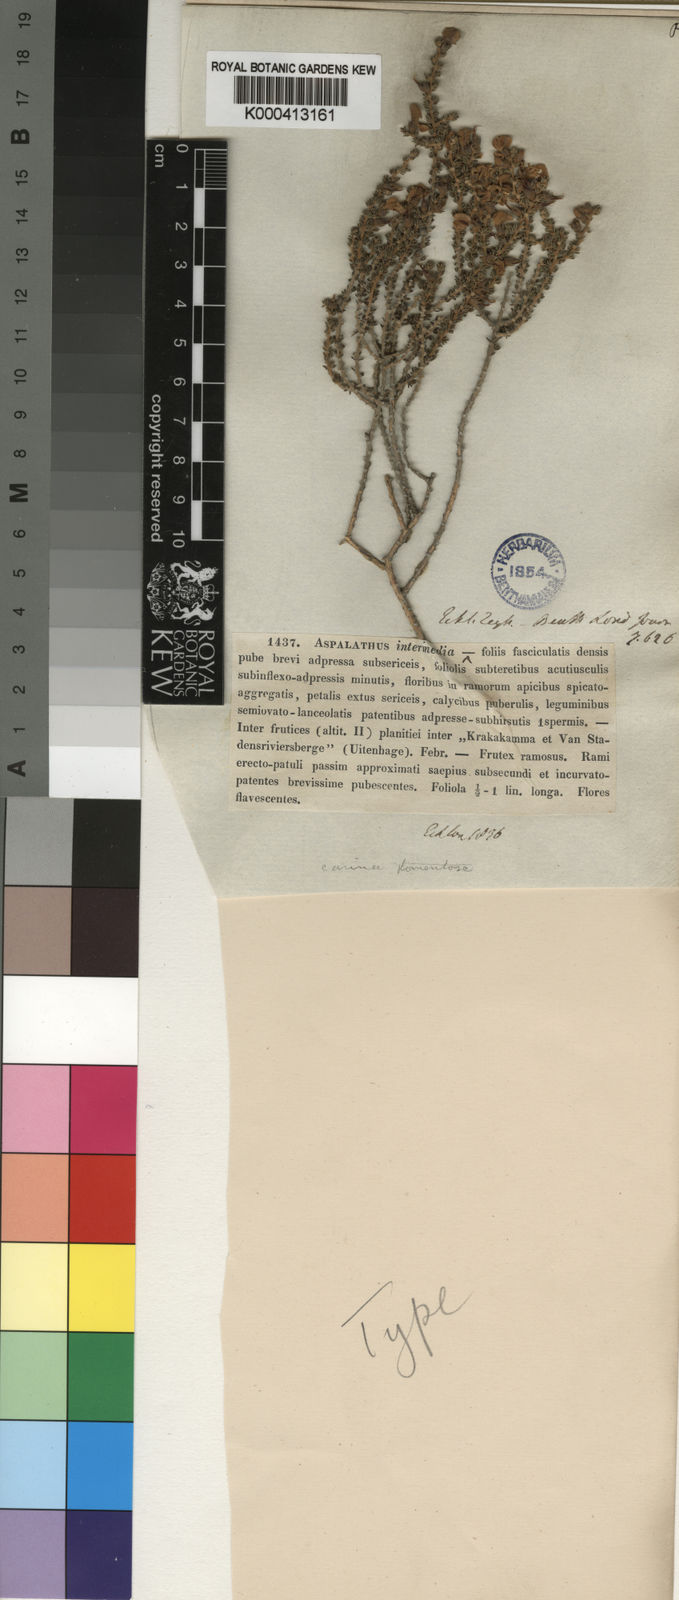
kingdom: Plantae
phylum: Tracheophyta
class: Magnoliopsida
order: Fabales
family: Fabaceae
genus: Aspalathus
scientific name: Aspalathus intermedia
